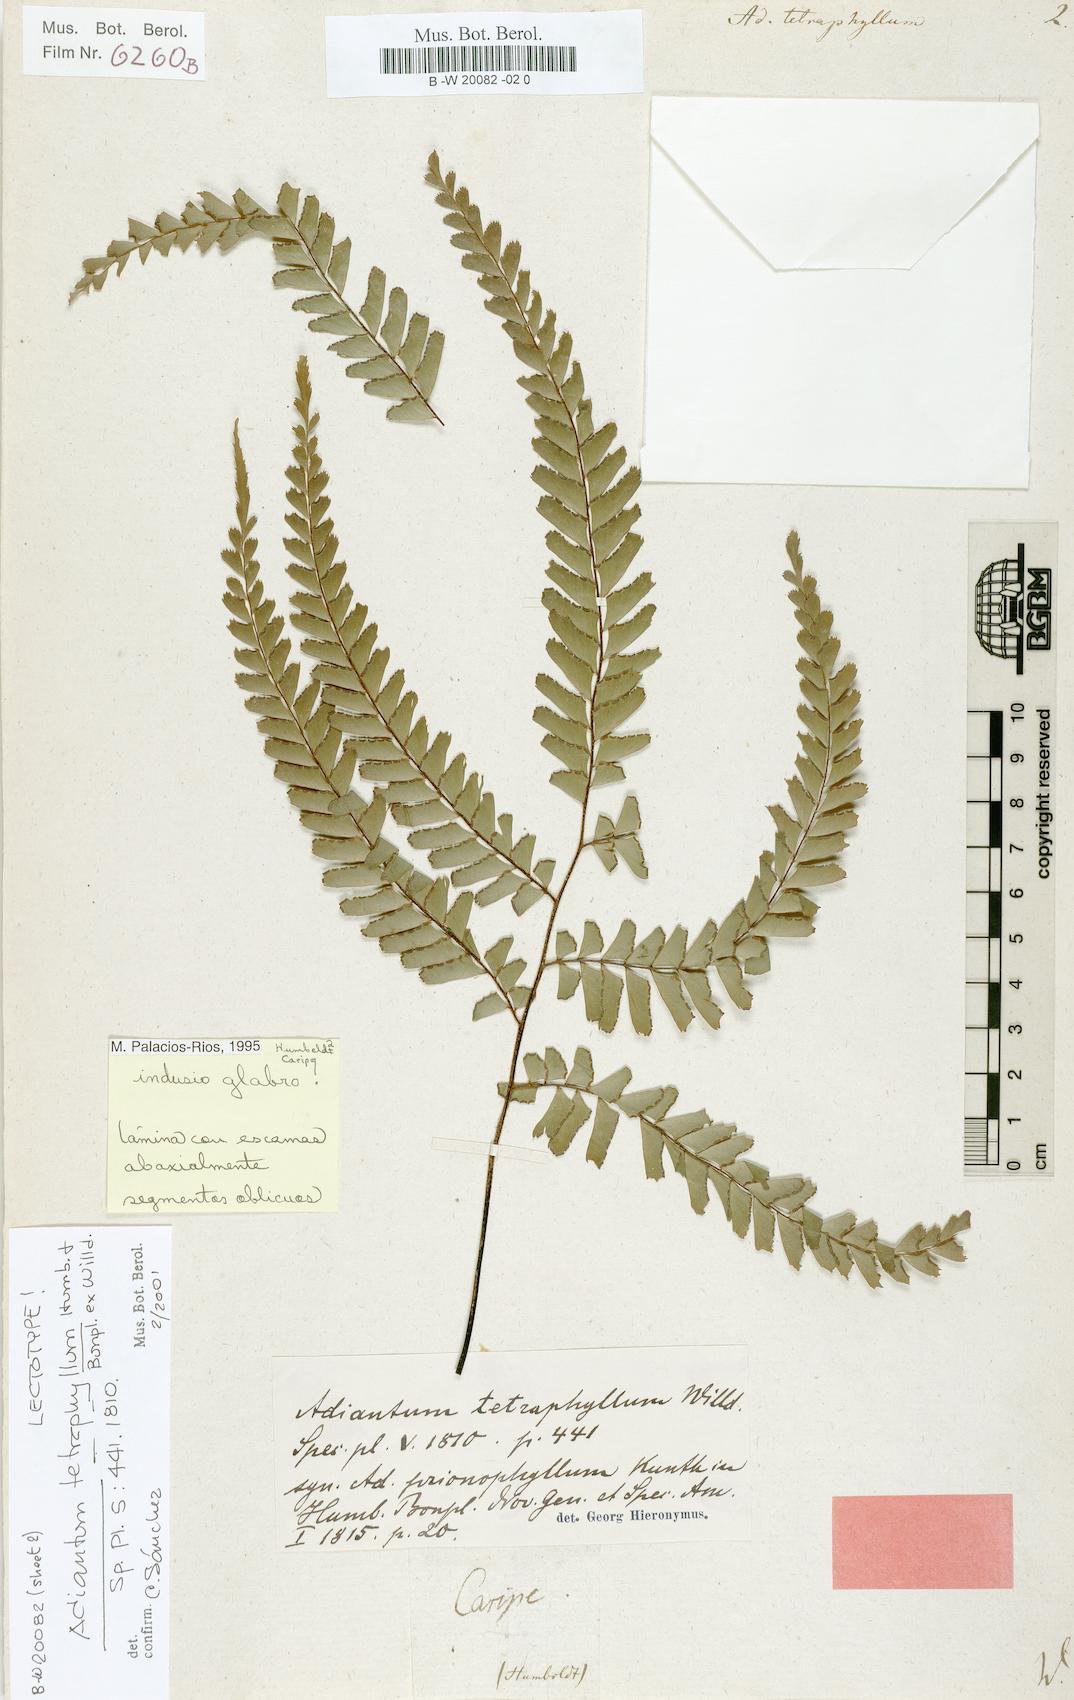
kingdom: Plantae
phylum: Tracheophyta
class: Polypodiopsida
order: Polypodiales
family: Pteridaceae
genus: Adiantum
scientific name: Adiantum tetraphyllum
